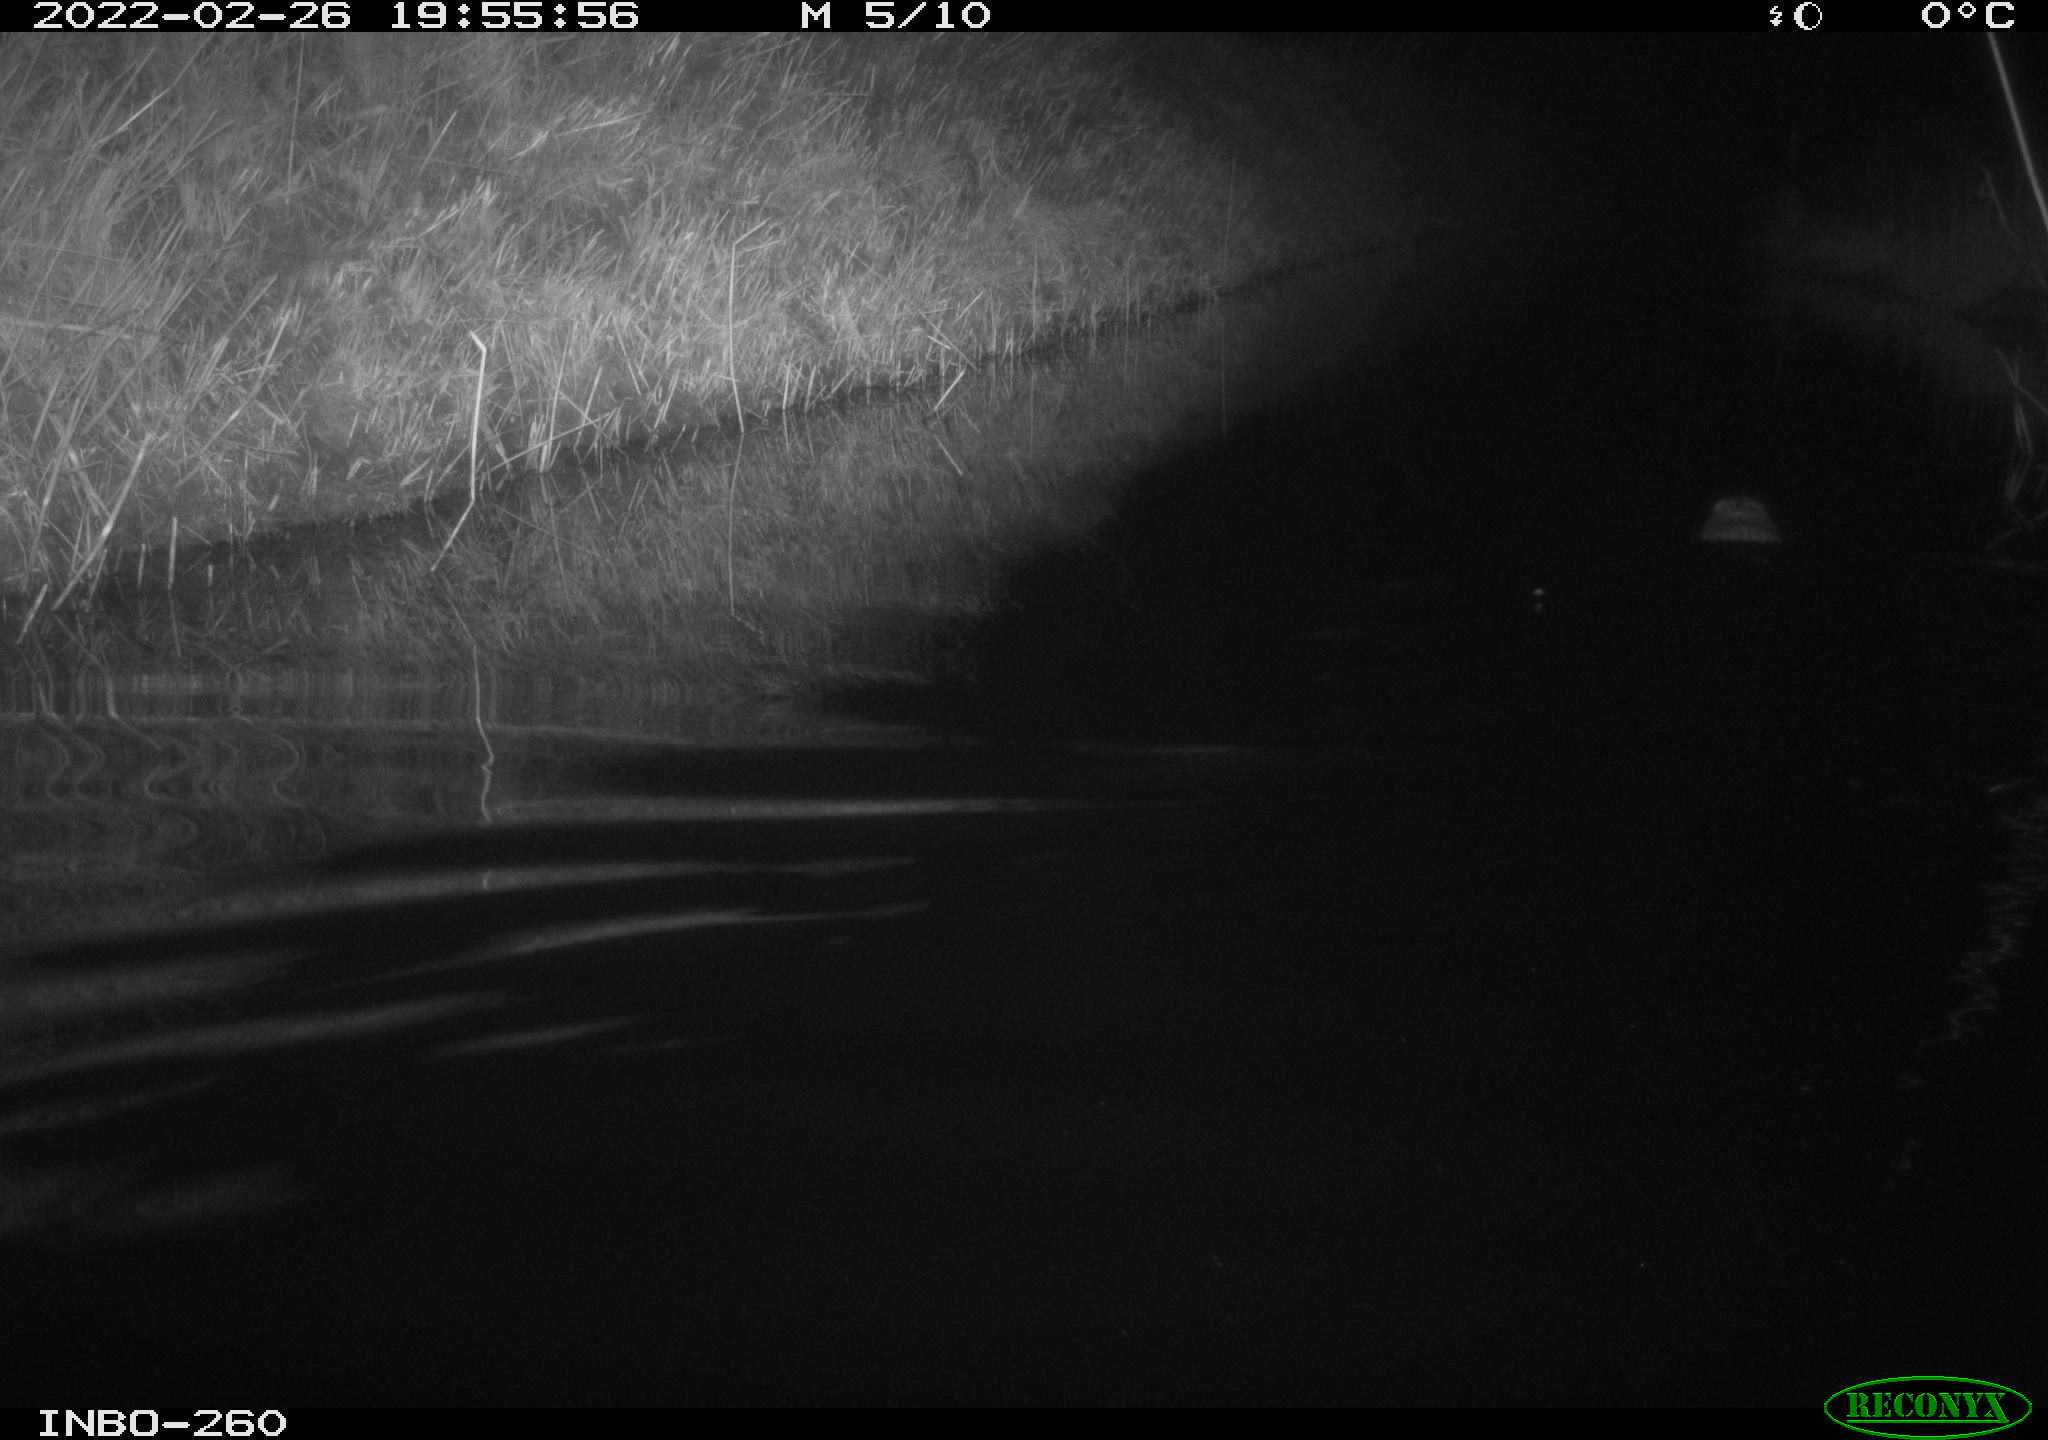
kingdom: Animalia
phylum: Chordata
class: Mammalia
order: Rodentia
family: Cricetidae
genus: Ondatra
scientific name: Ondatra zibethicus
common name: Muskrat
